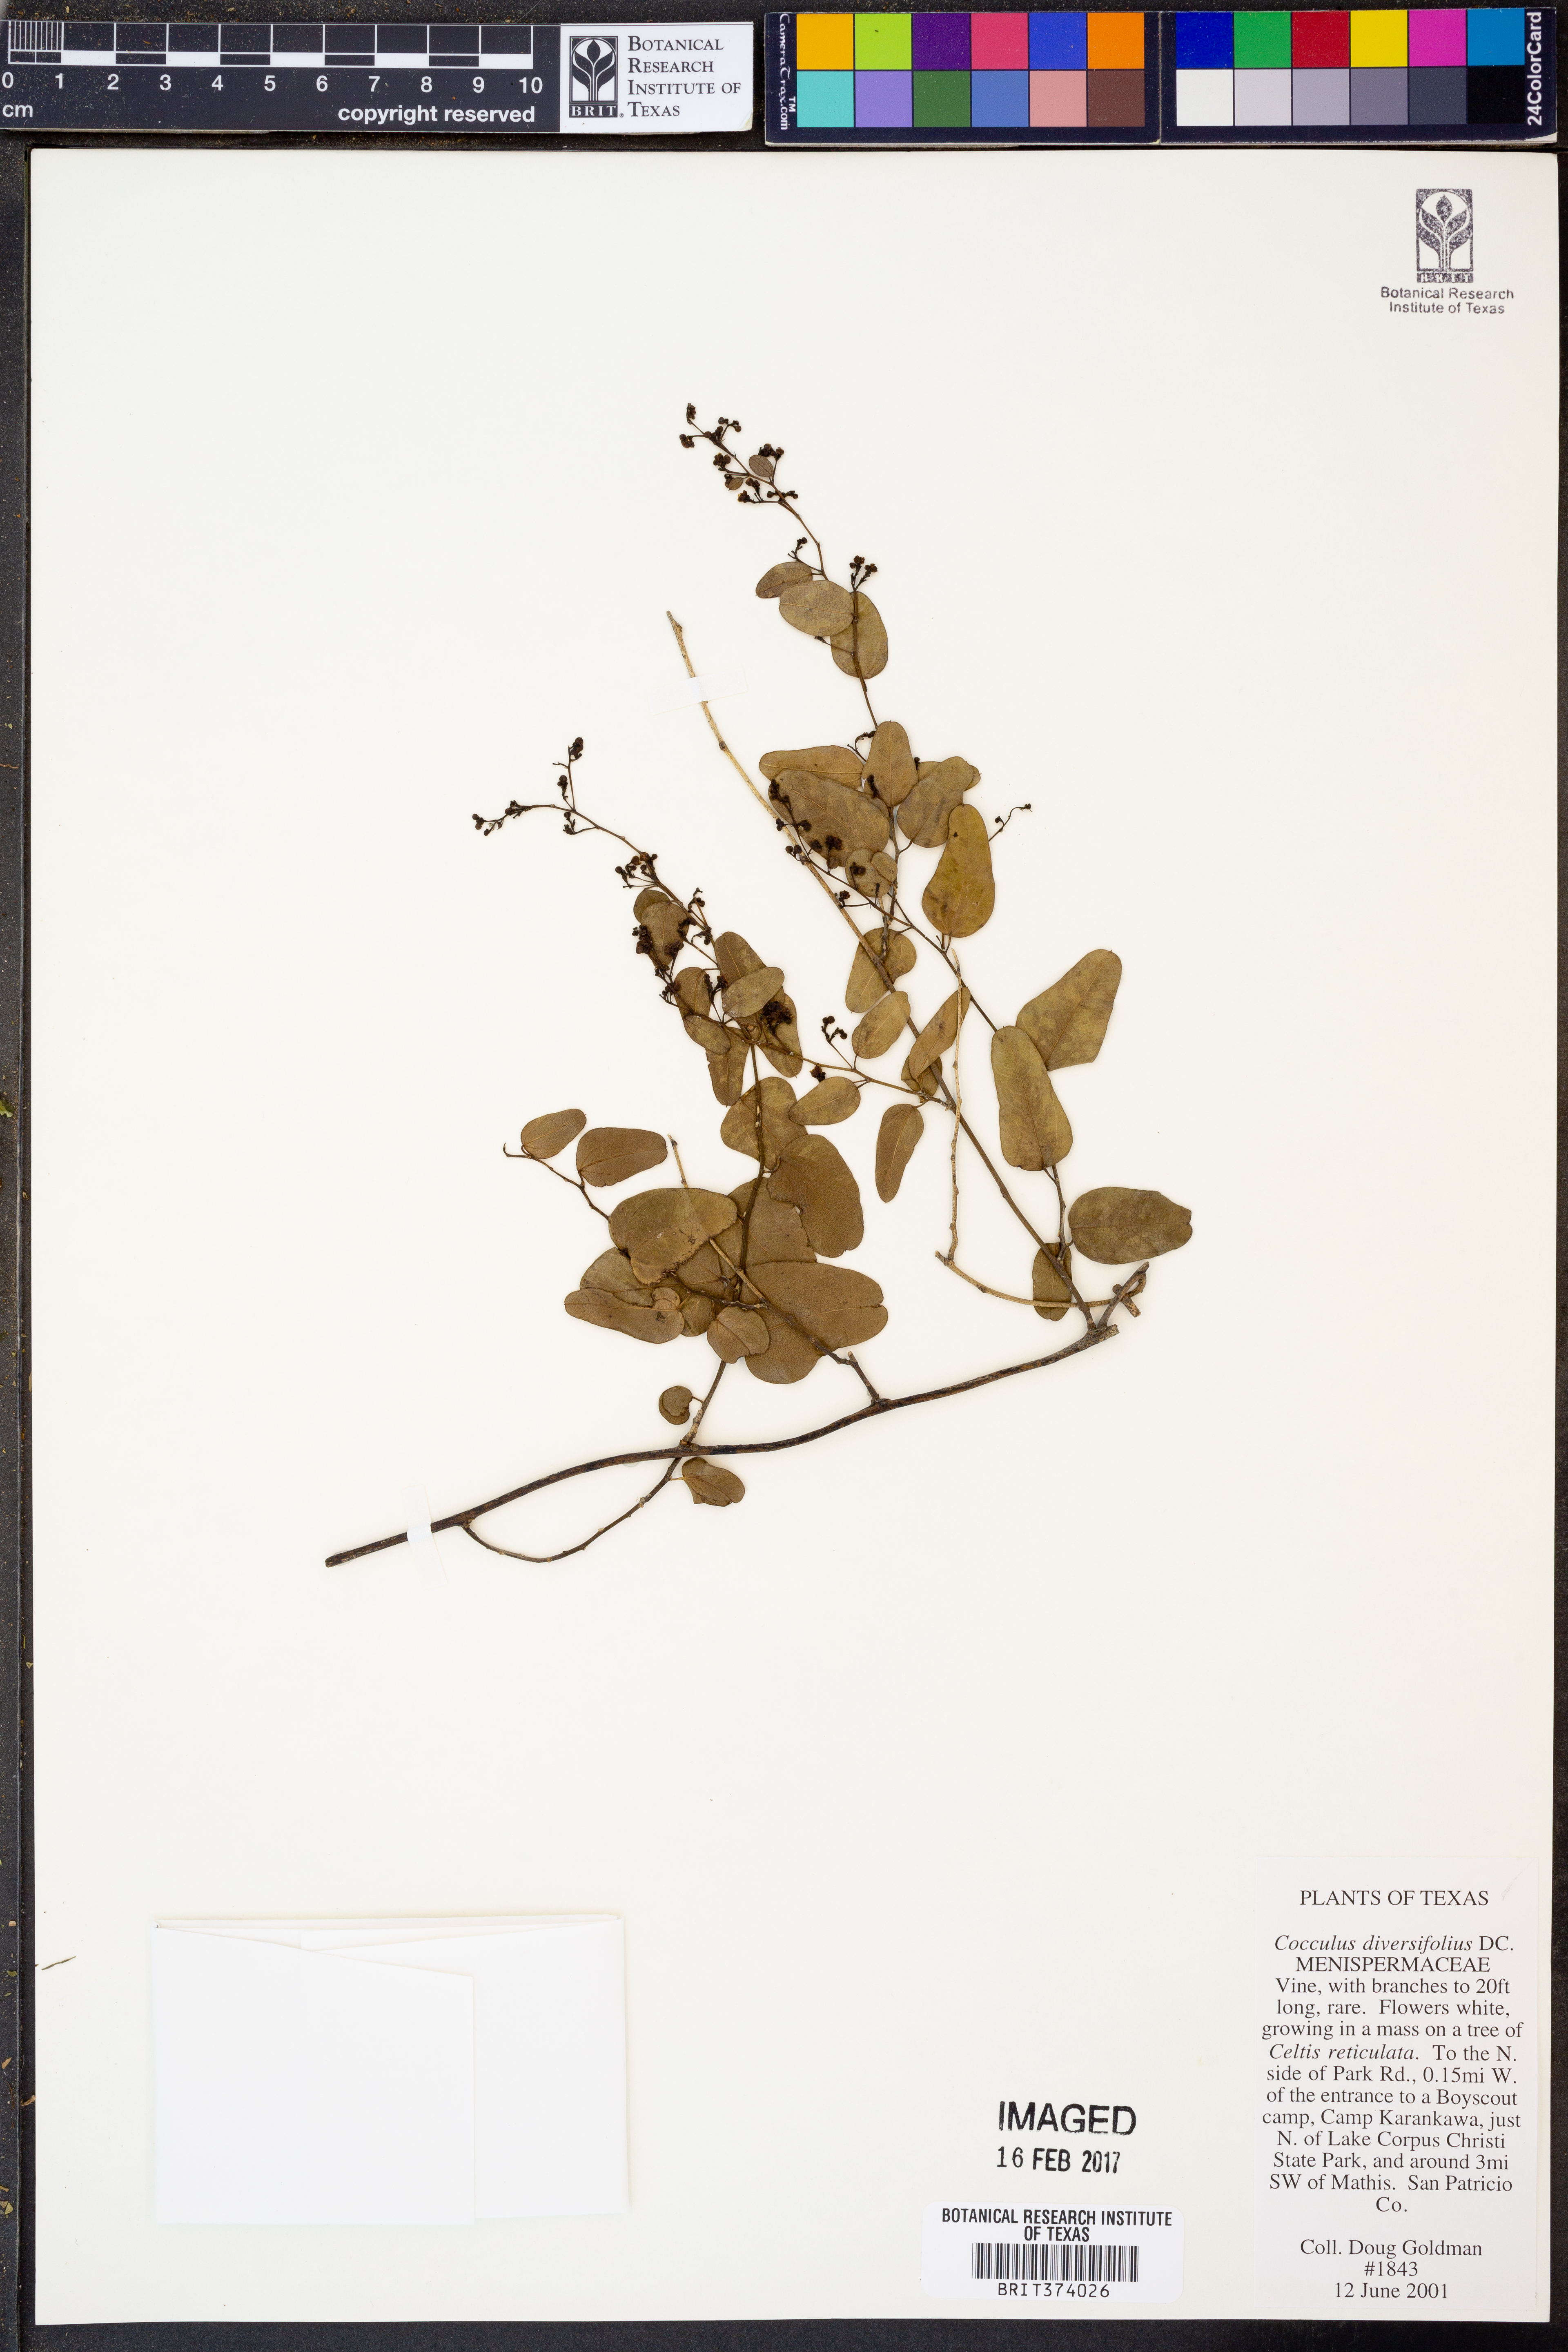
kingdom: Plantae
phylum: Tracheophyta
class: Magnoliopsida
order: Ranunculales
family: Menispermaceae
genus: Cocculus
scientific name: Cocculus diversifolius
